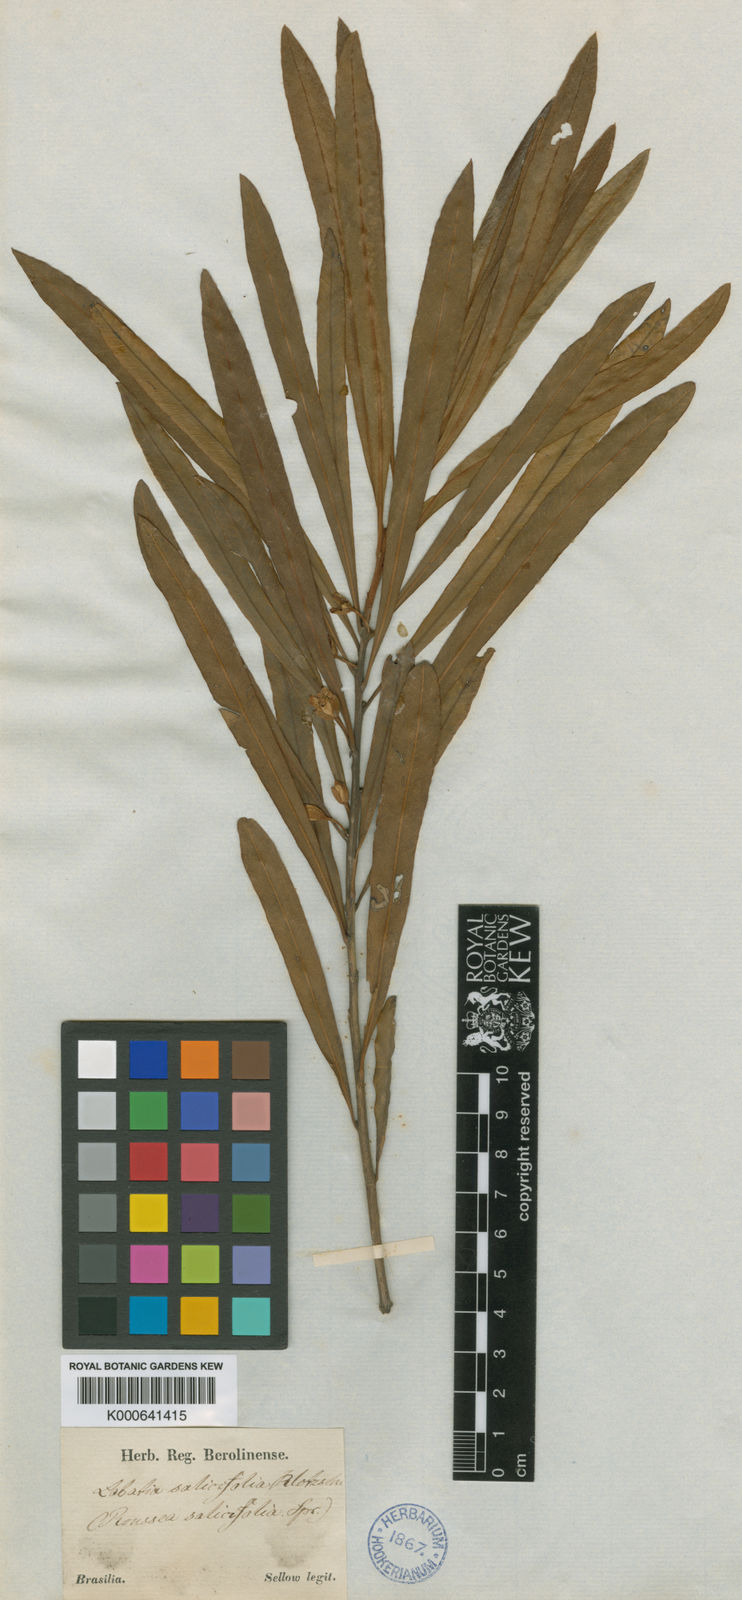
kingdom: Plantae
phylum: Tracheophyta
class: Magnoliopsida
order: Ericales
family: Sapotaceae
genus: Pouteria
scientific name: Pouteria salicifolia
